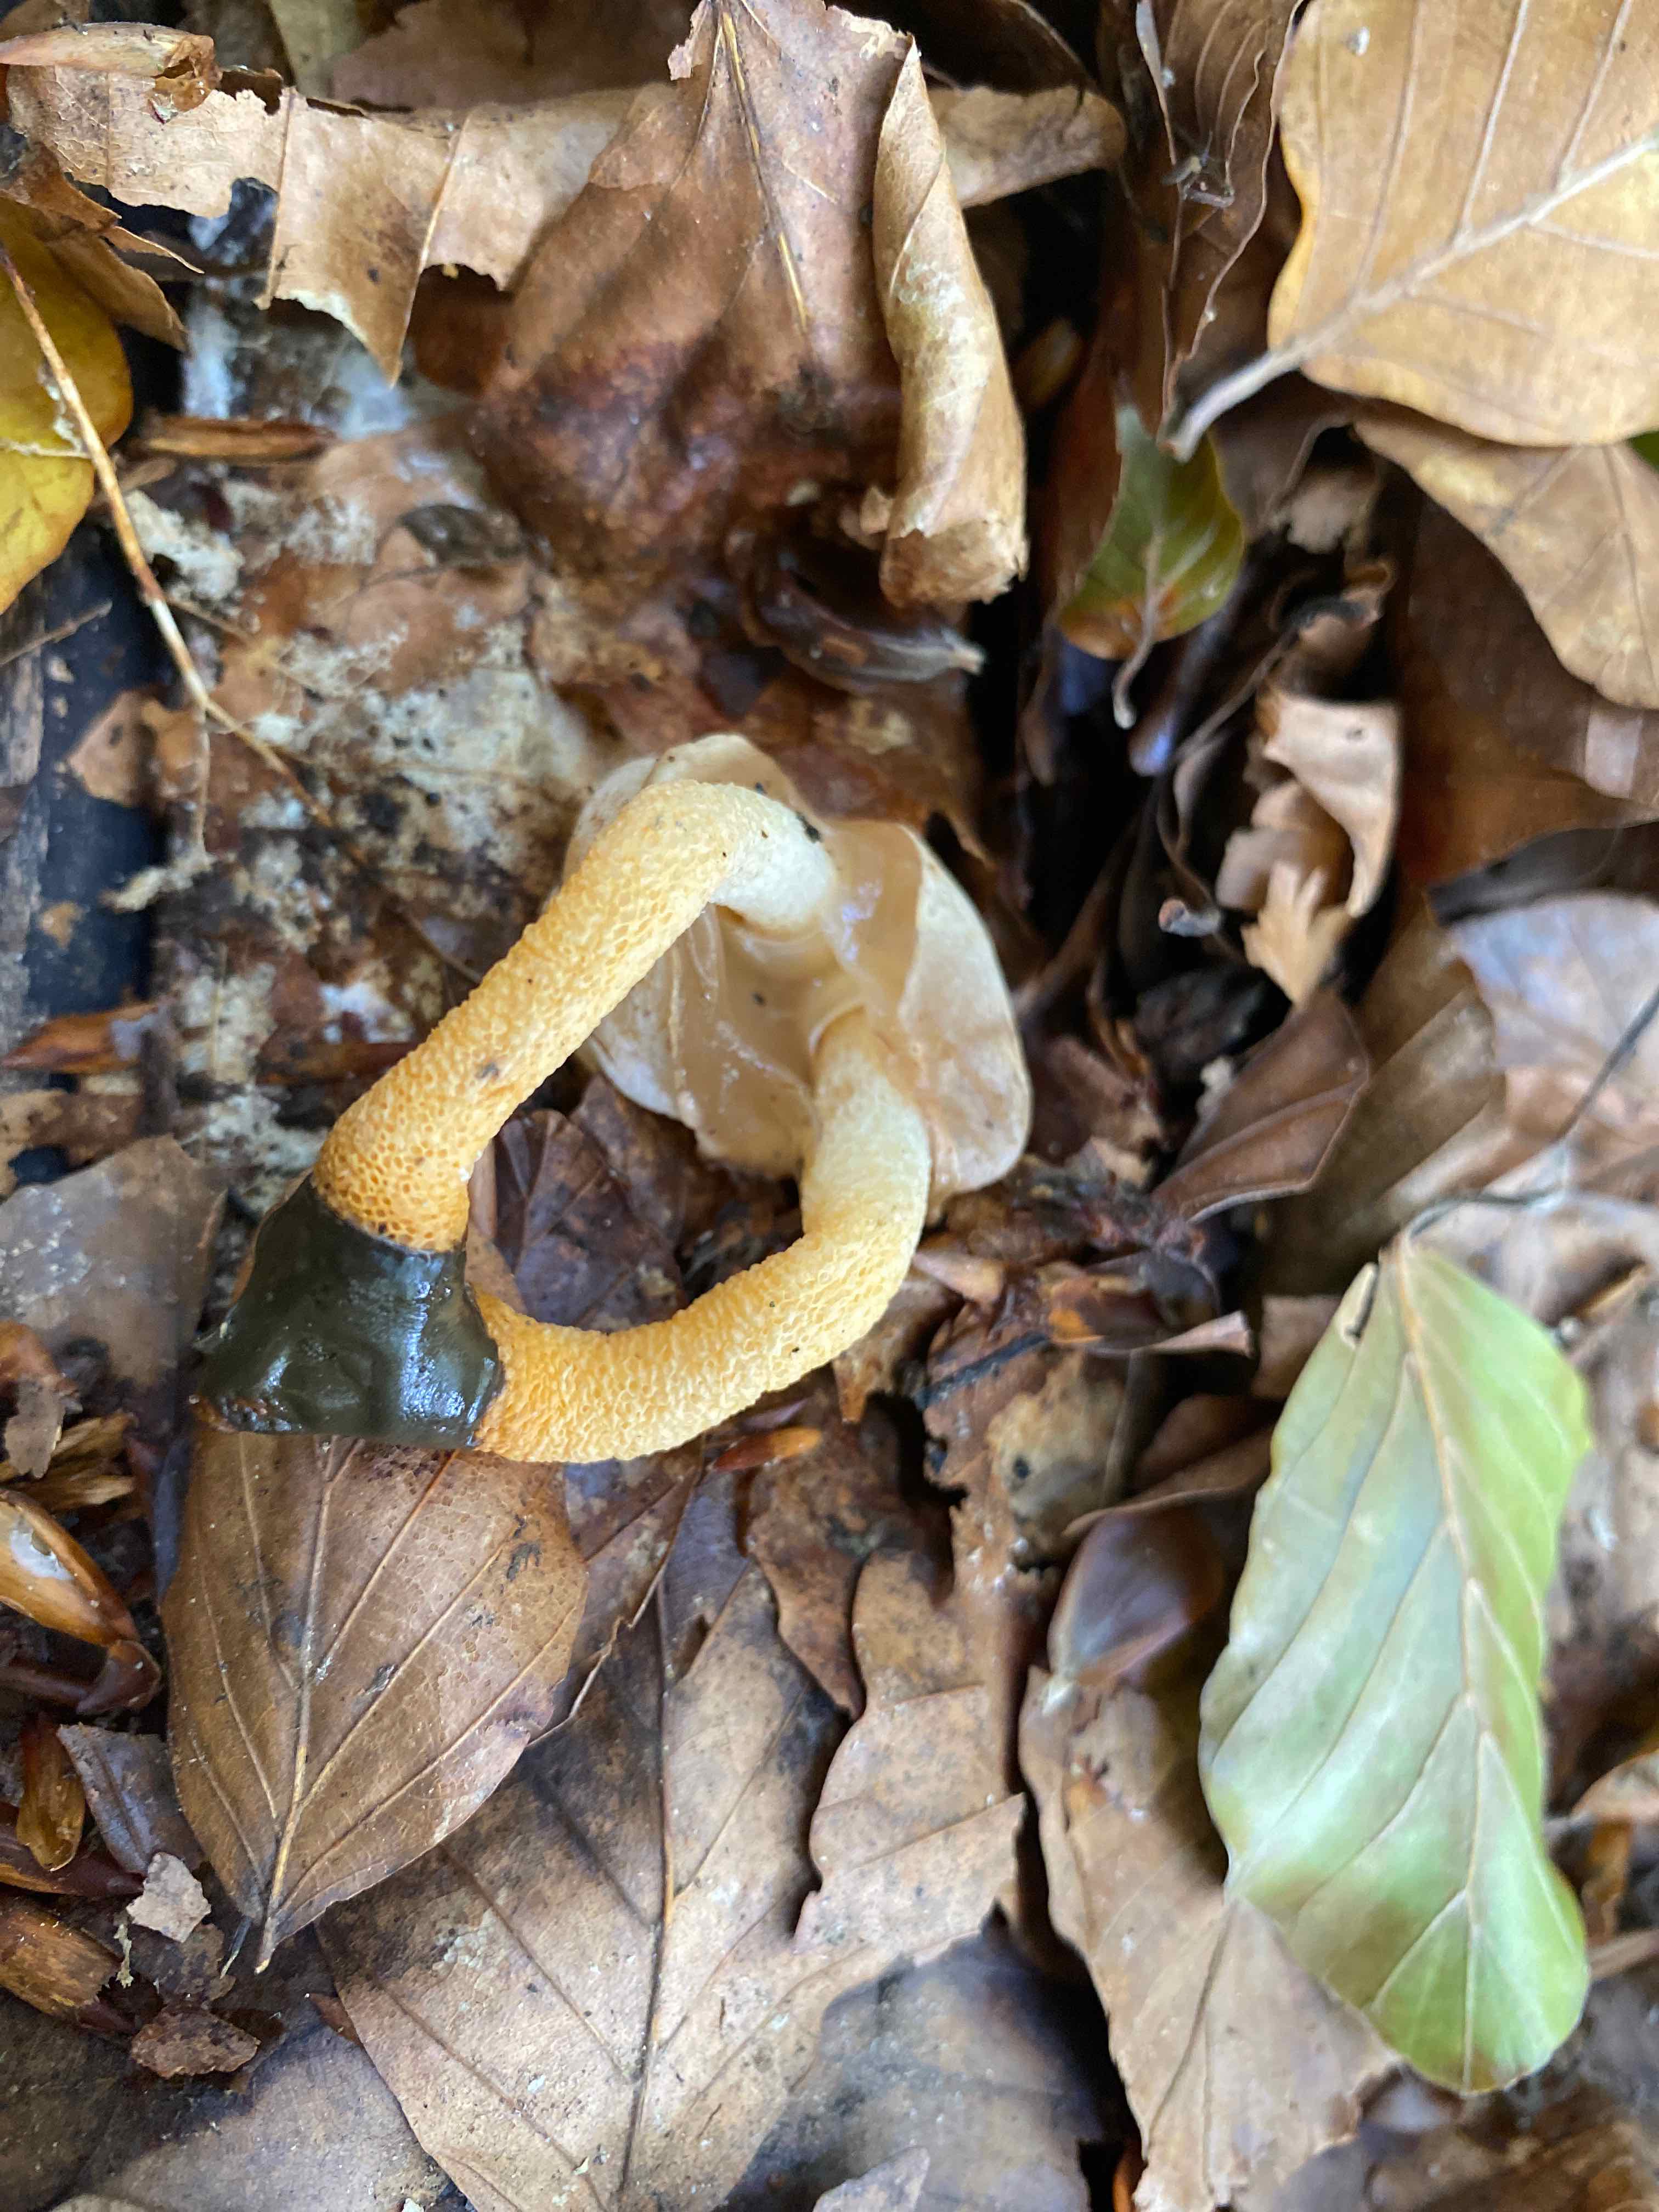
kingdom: Fungi
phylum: Basidiomycota
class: Agaricomycetes
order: Phallales
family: Phallaceae
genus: Mutinus
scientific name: Mutinus caninus
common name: hunde-stinksvamp
